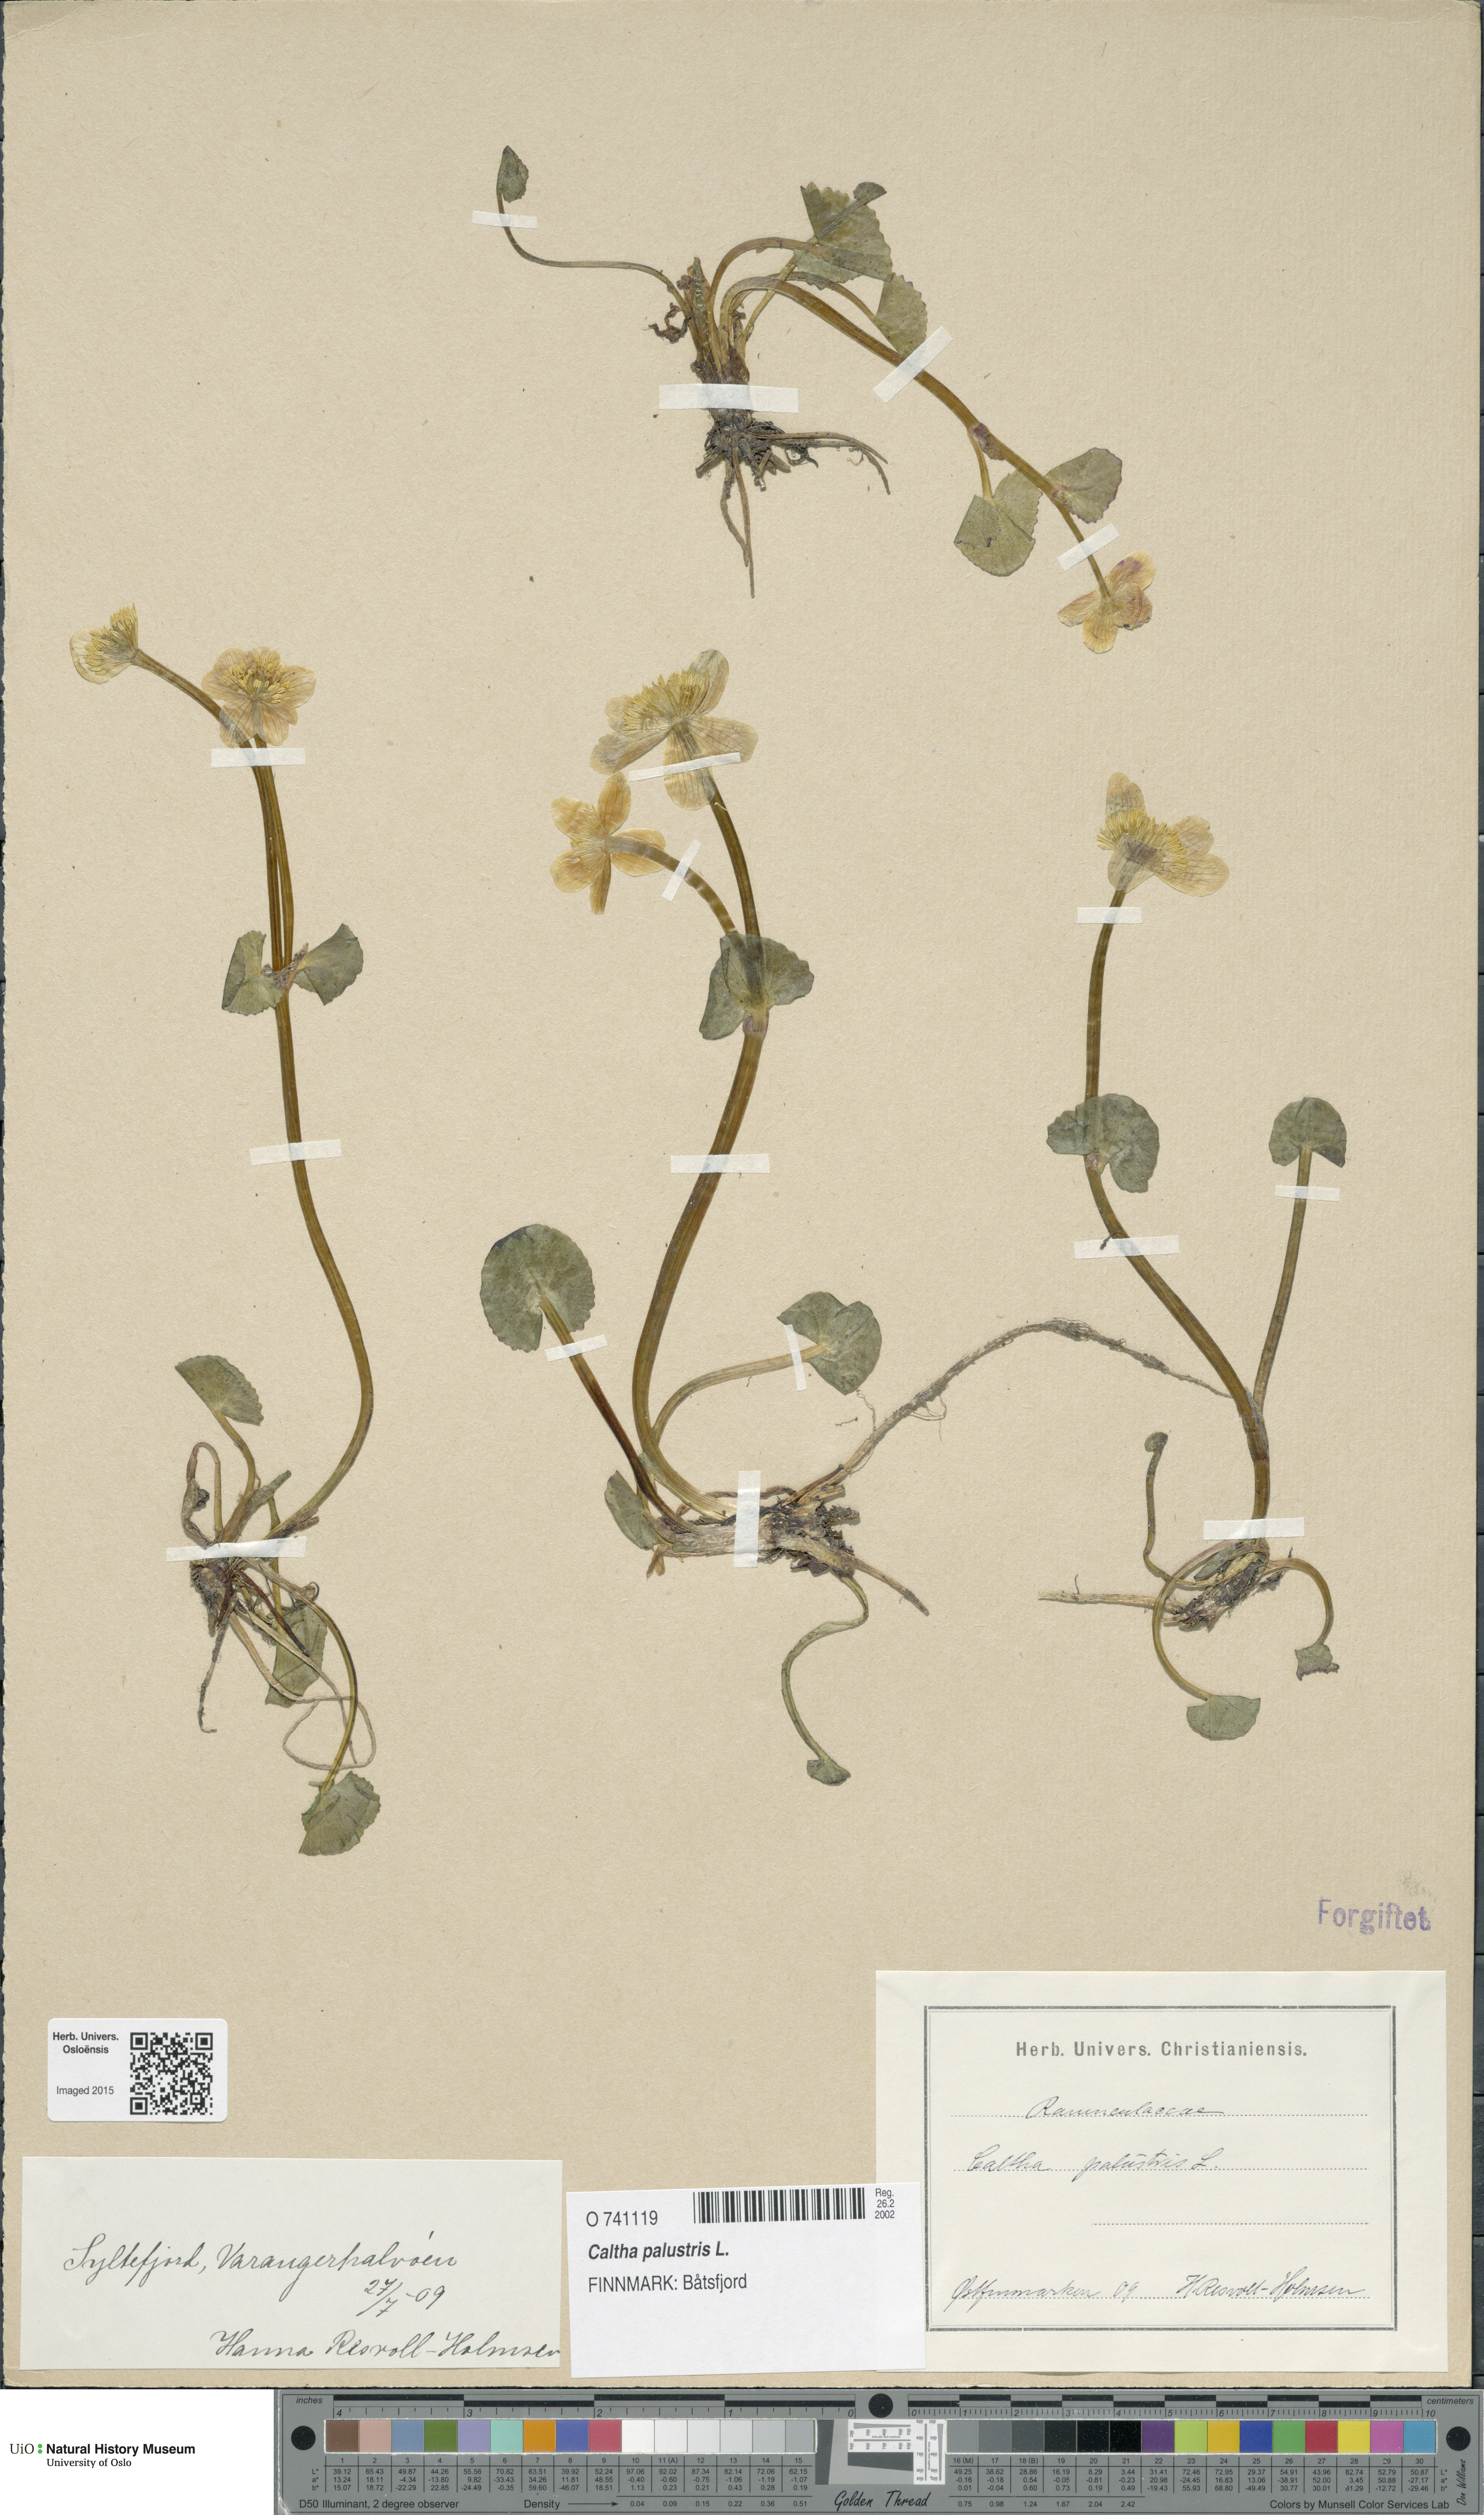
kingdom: Plantae
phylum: Tracheophyta
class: Magnoliopsida
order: Ranunculales
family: Ranunculaceae
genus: Caltha
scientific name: Caltha palustris
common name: Marsh marigold
